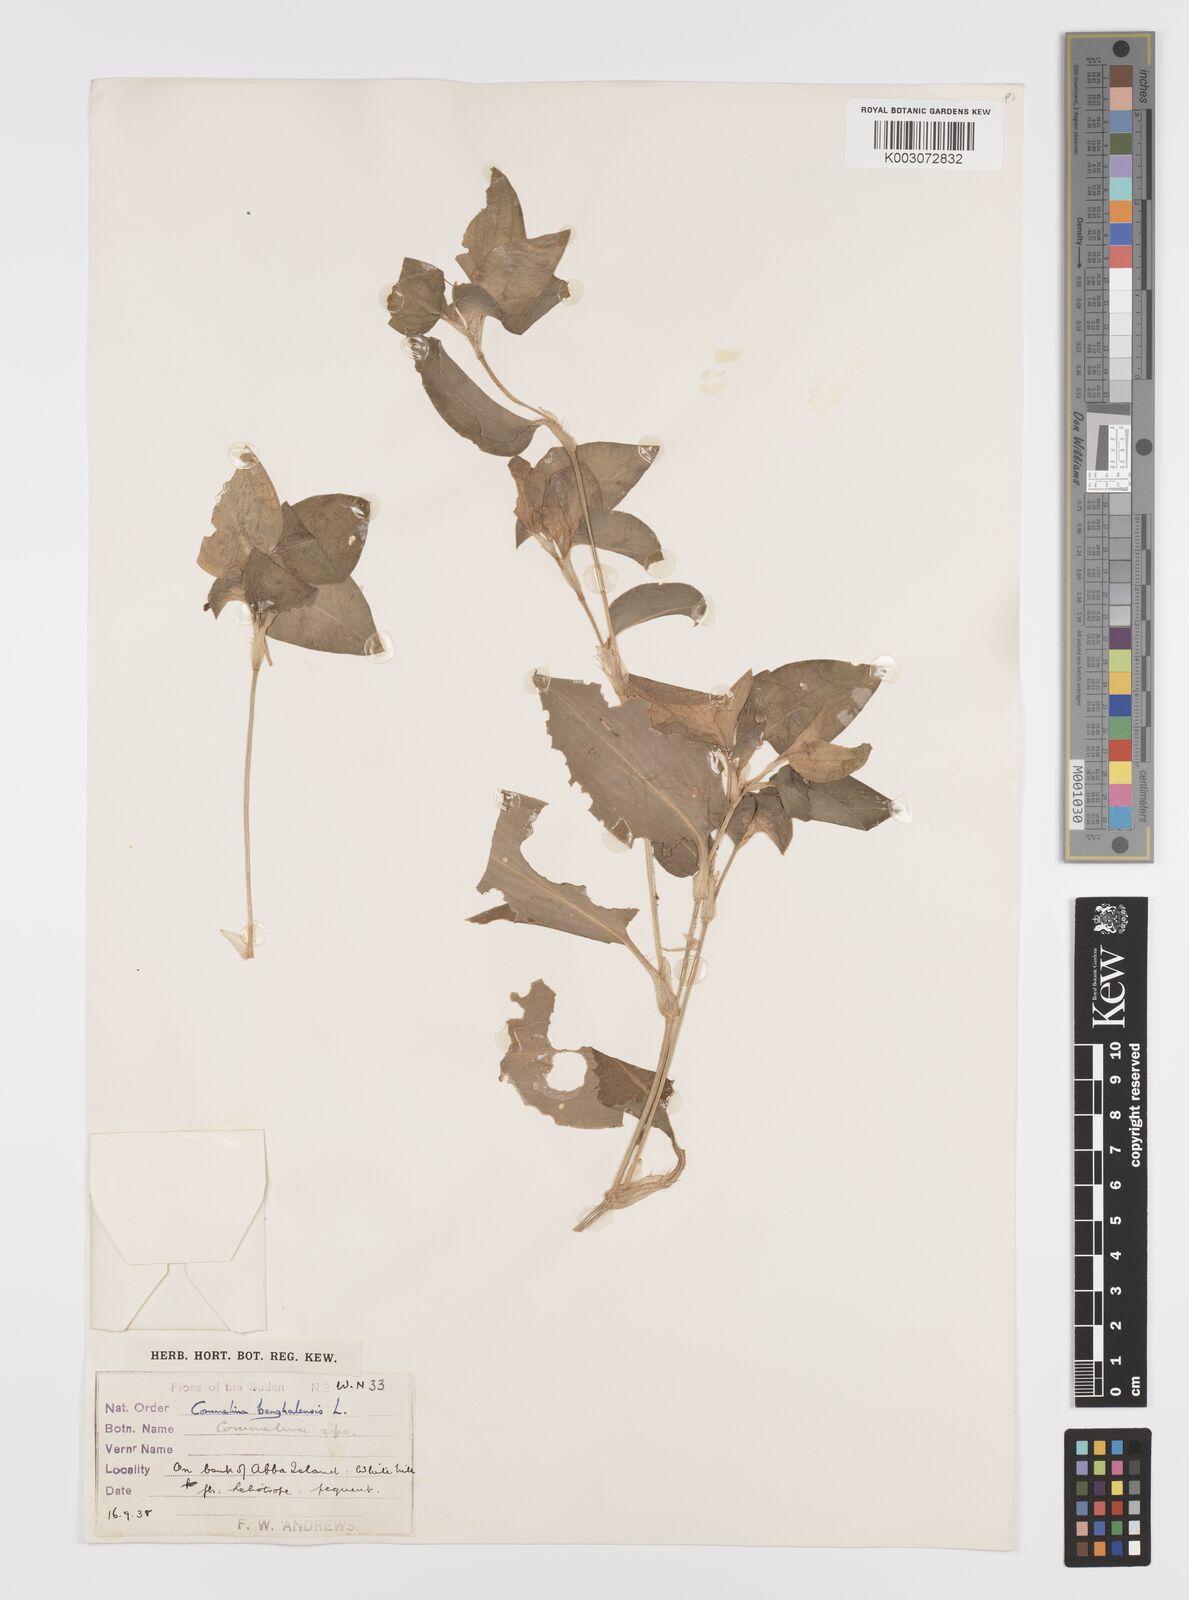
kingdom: Plantae
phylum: Tracheophyta
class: Liliopsida
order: Commelinales
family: Commelinaceae
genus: Commelina
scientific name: Commelina benghalensis
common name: Jio
